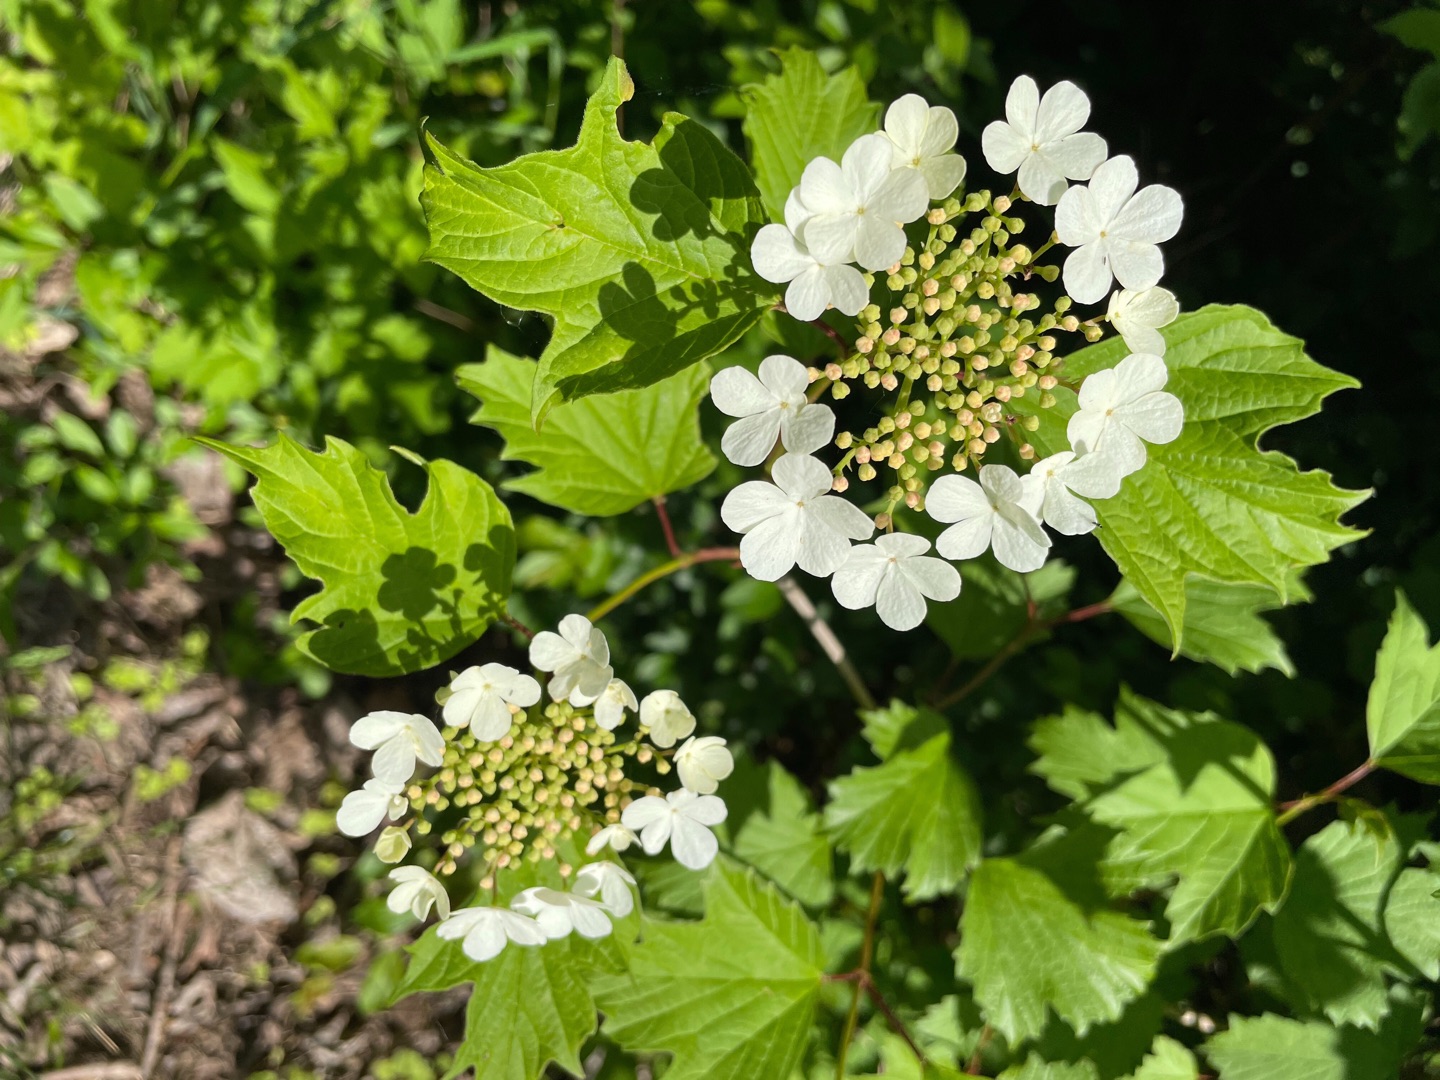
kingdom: Plantae
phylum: Tracheophyta
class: Magnoliopsida
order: Dipsacales
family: Viburnaceae
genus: Viburnum
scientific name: Viburnum opulus
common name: Kvalkved
